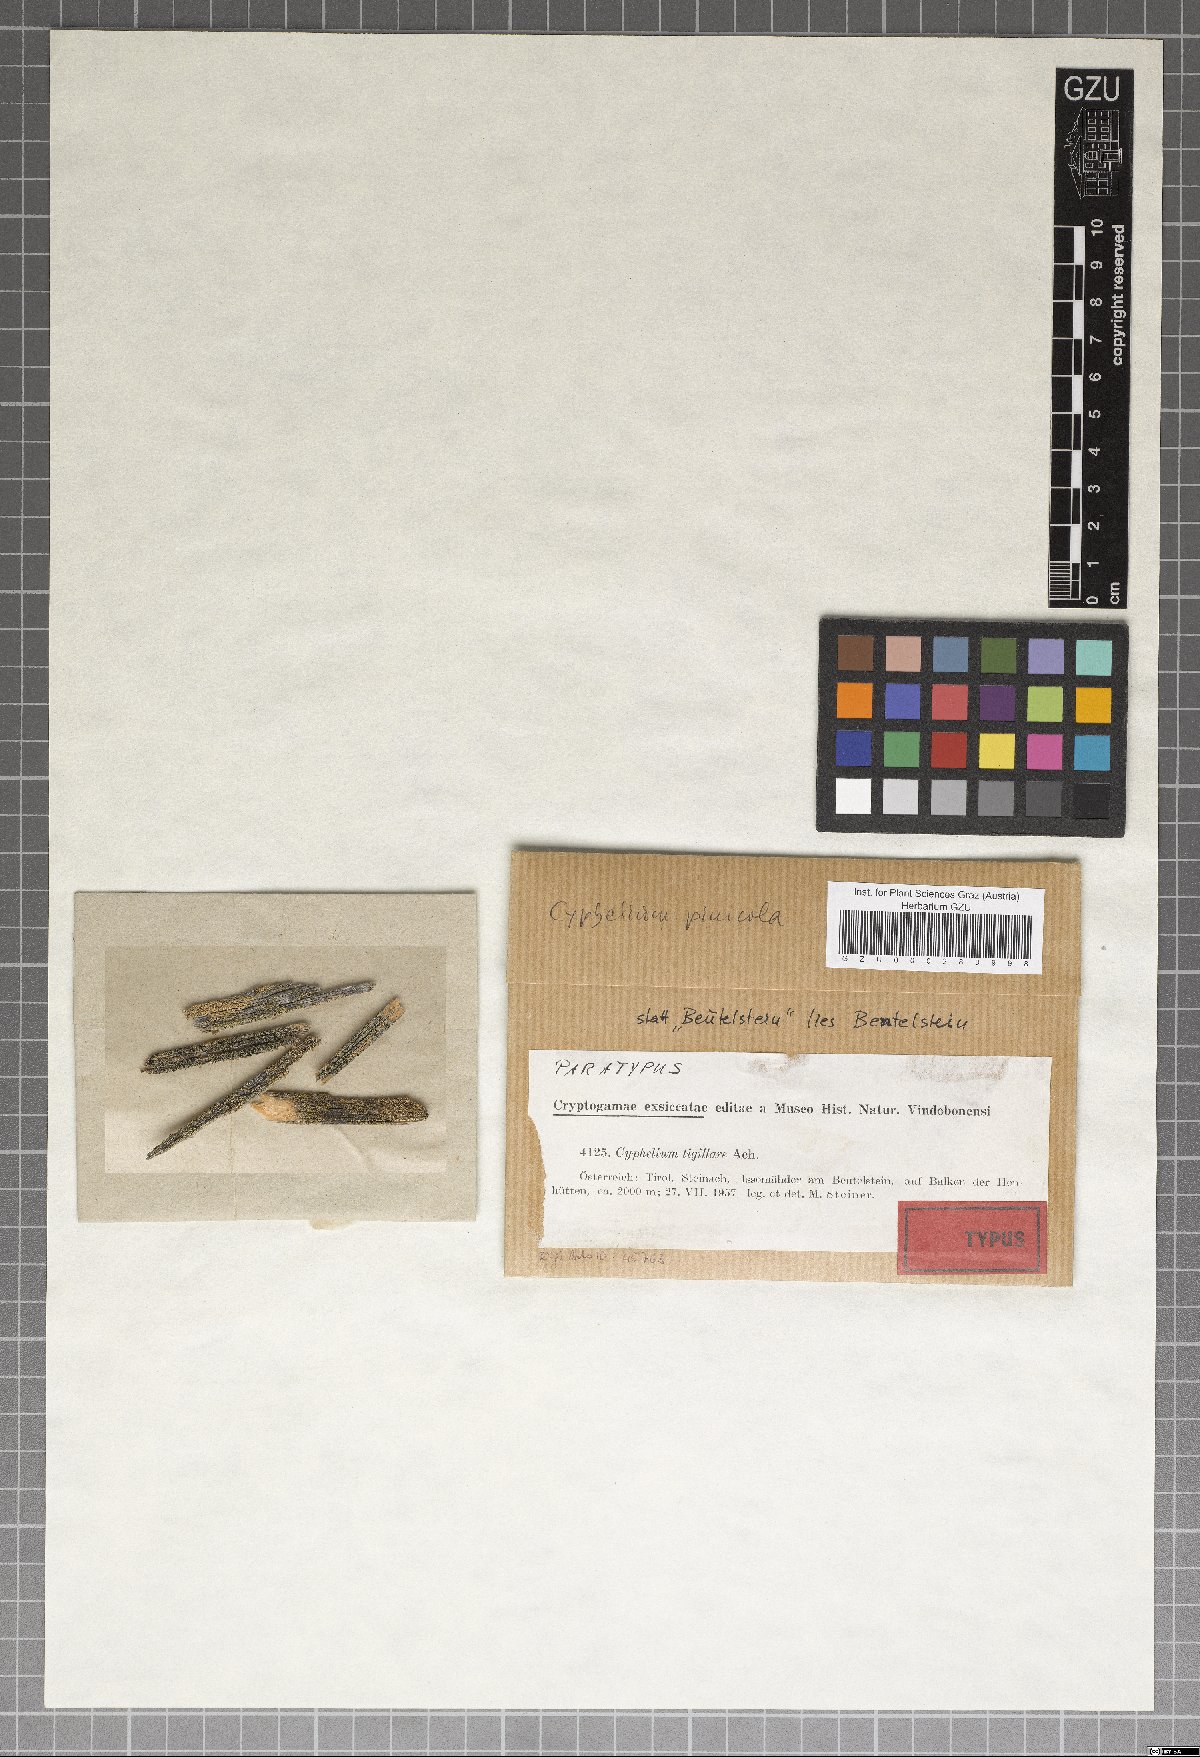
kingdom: Fungi
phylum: Ascomycota
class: Lecanoromycetes
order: Caliciales
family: Caliciaceae
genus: Calicium
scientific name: Calicium pinicola
